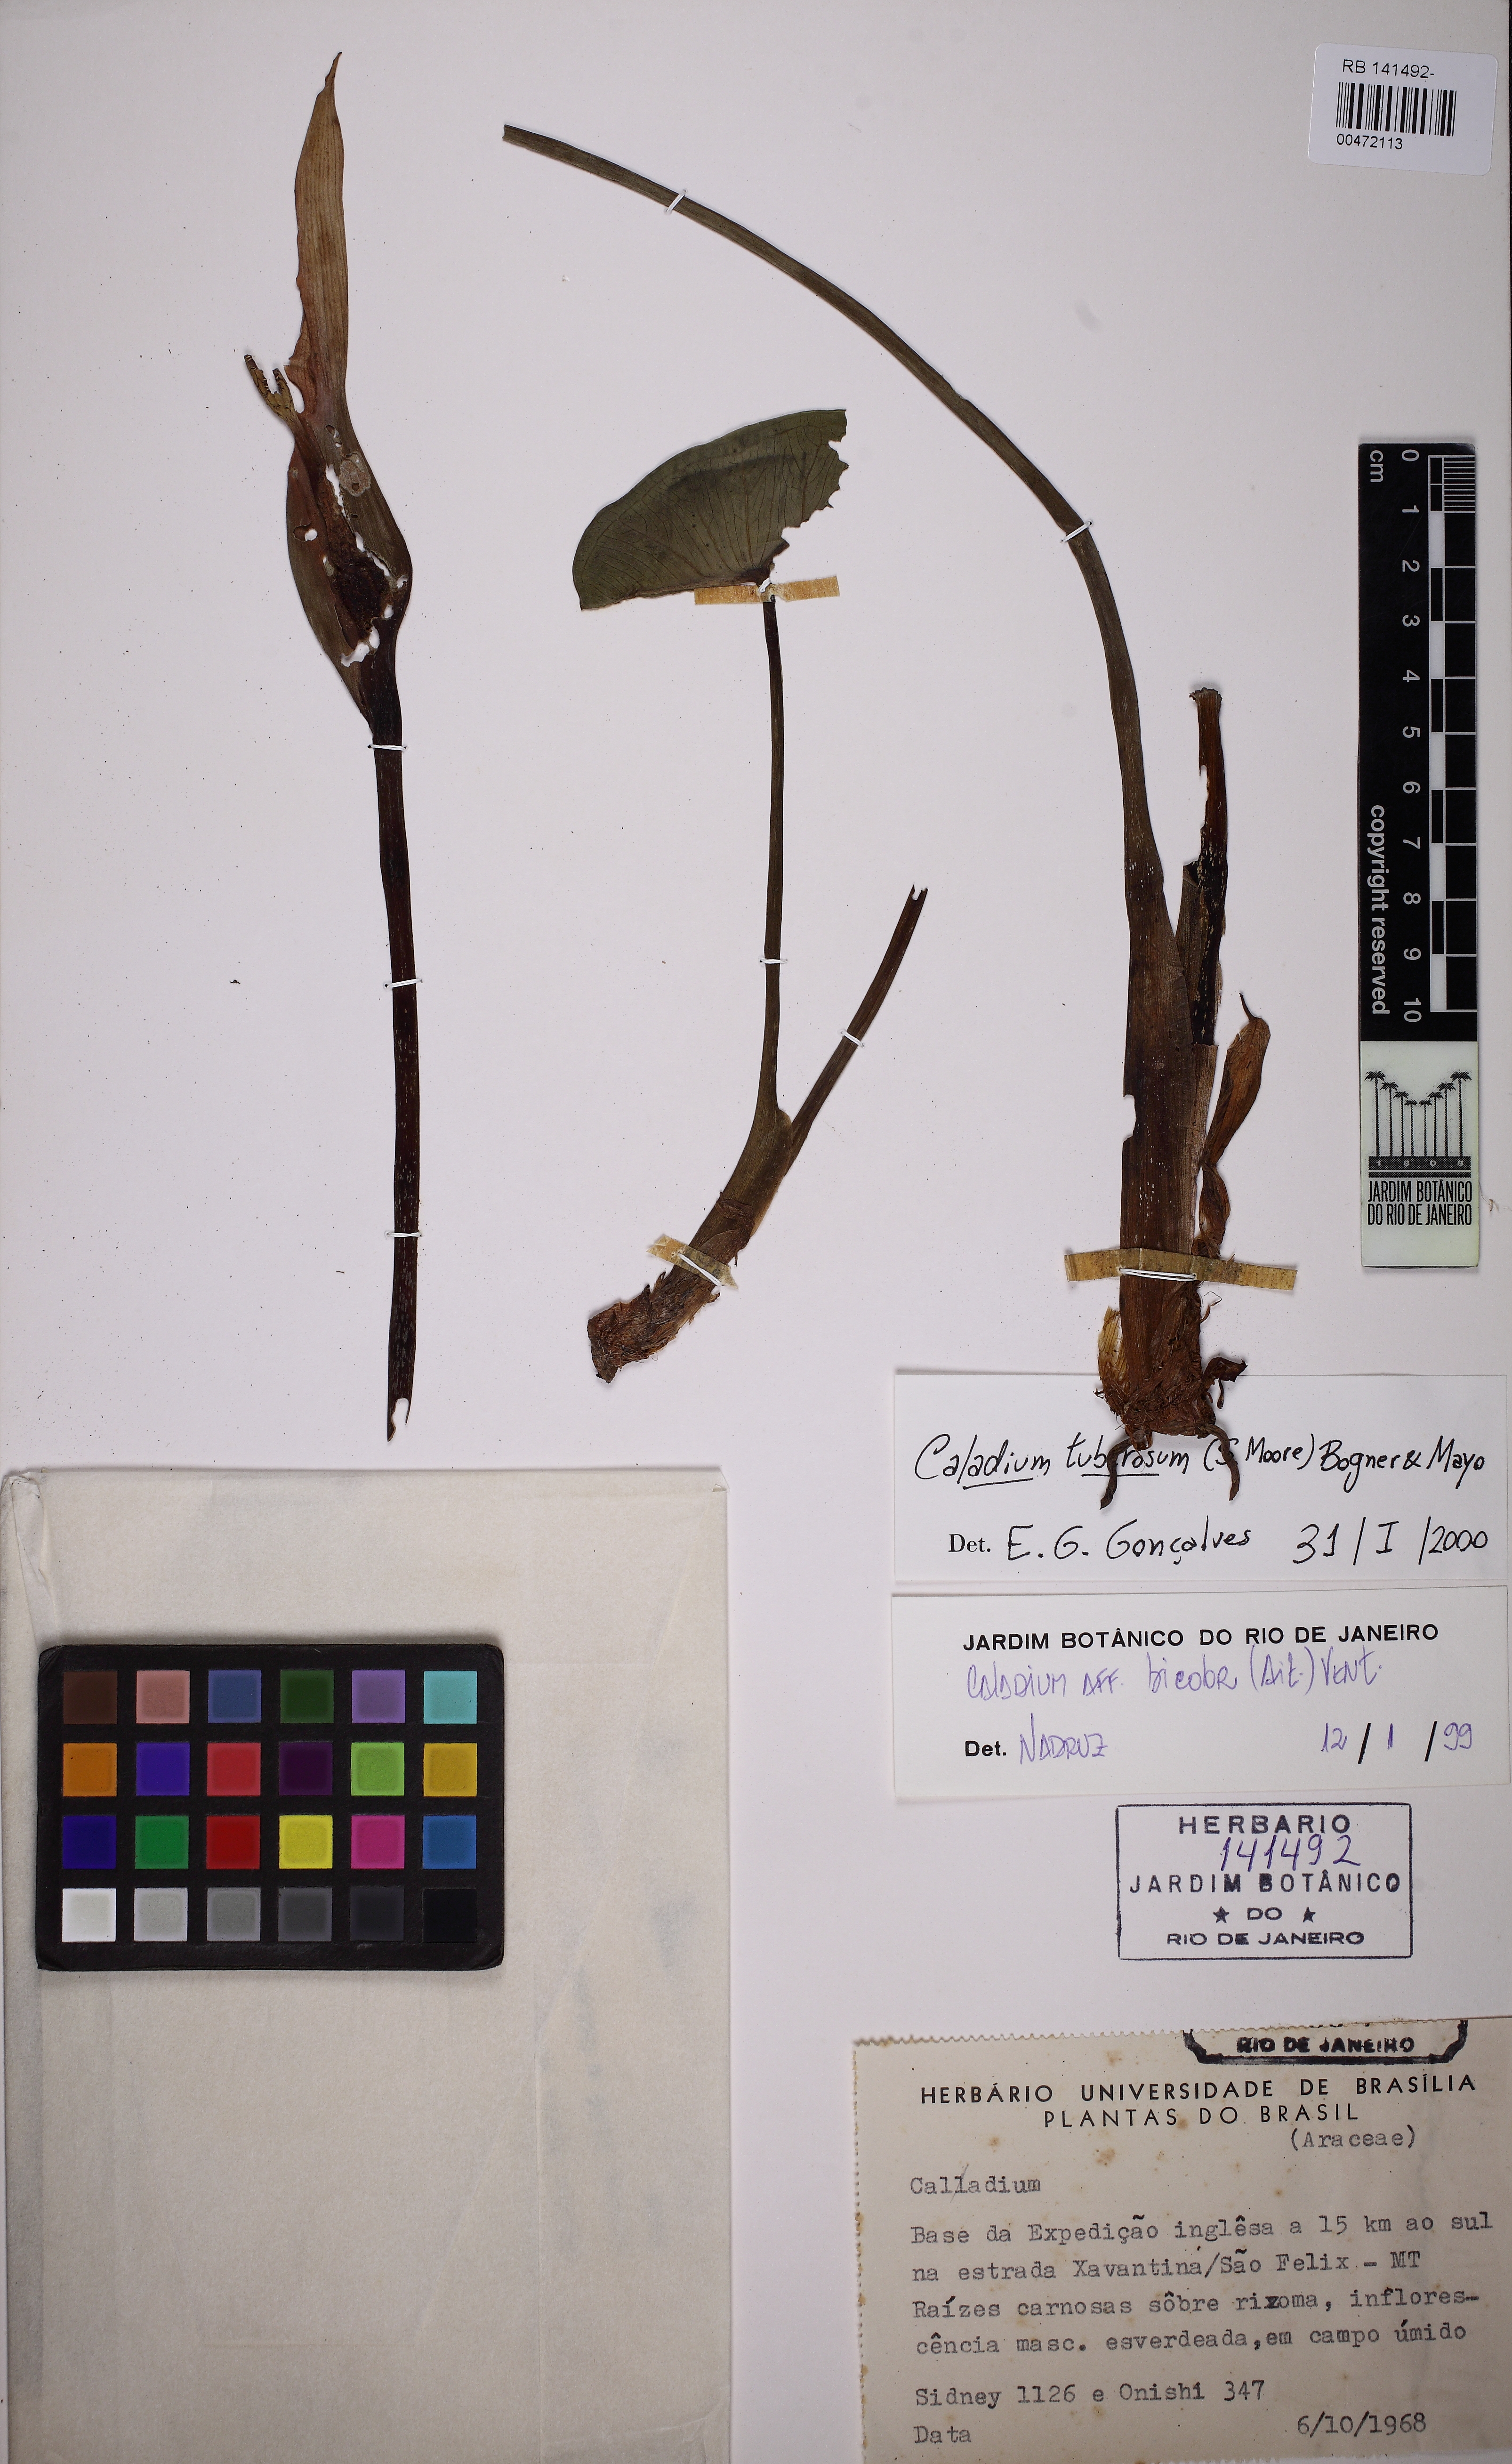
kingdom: Plantae
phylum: Tracheophyta
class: Liliopsida
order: Alismatales
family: Araceae
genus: Caladium
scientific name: Caladium tuberosum
